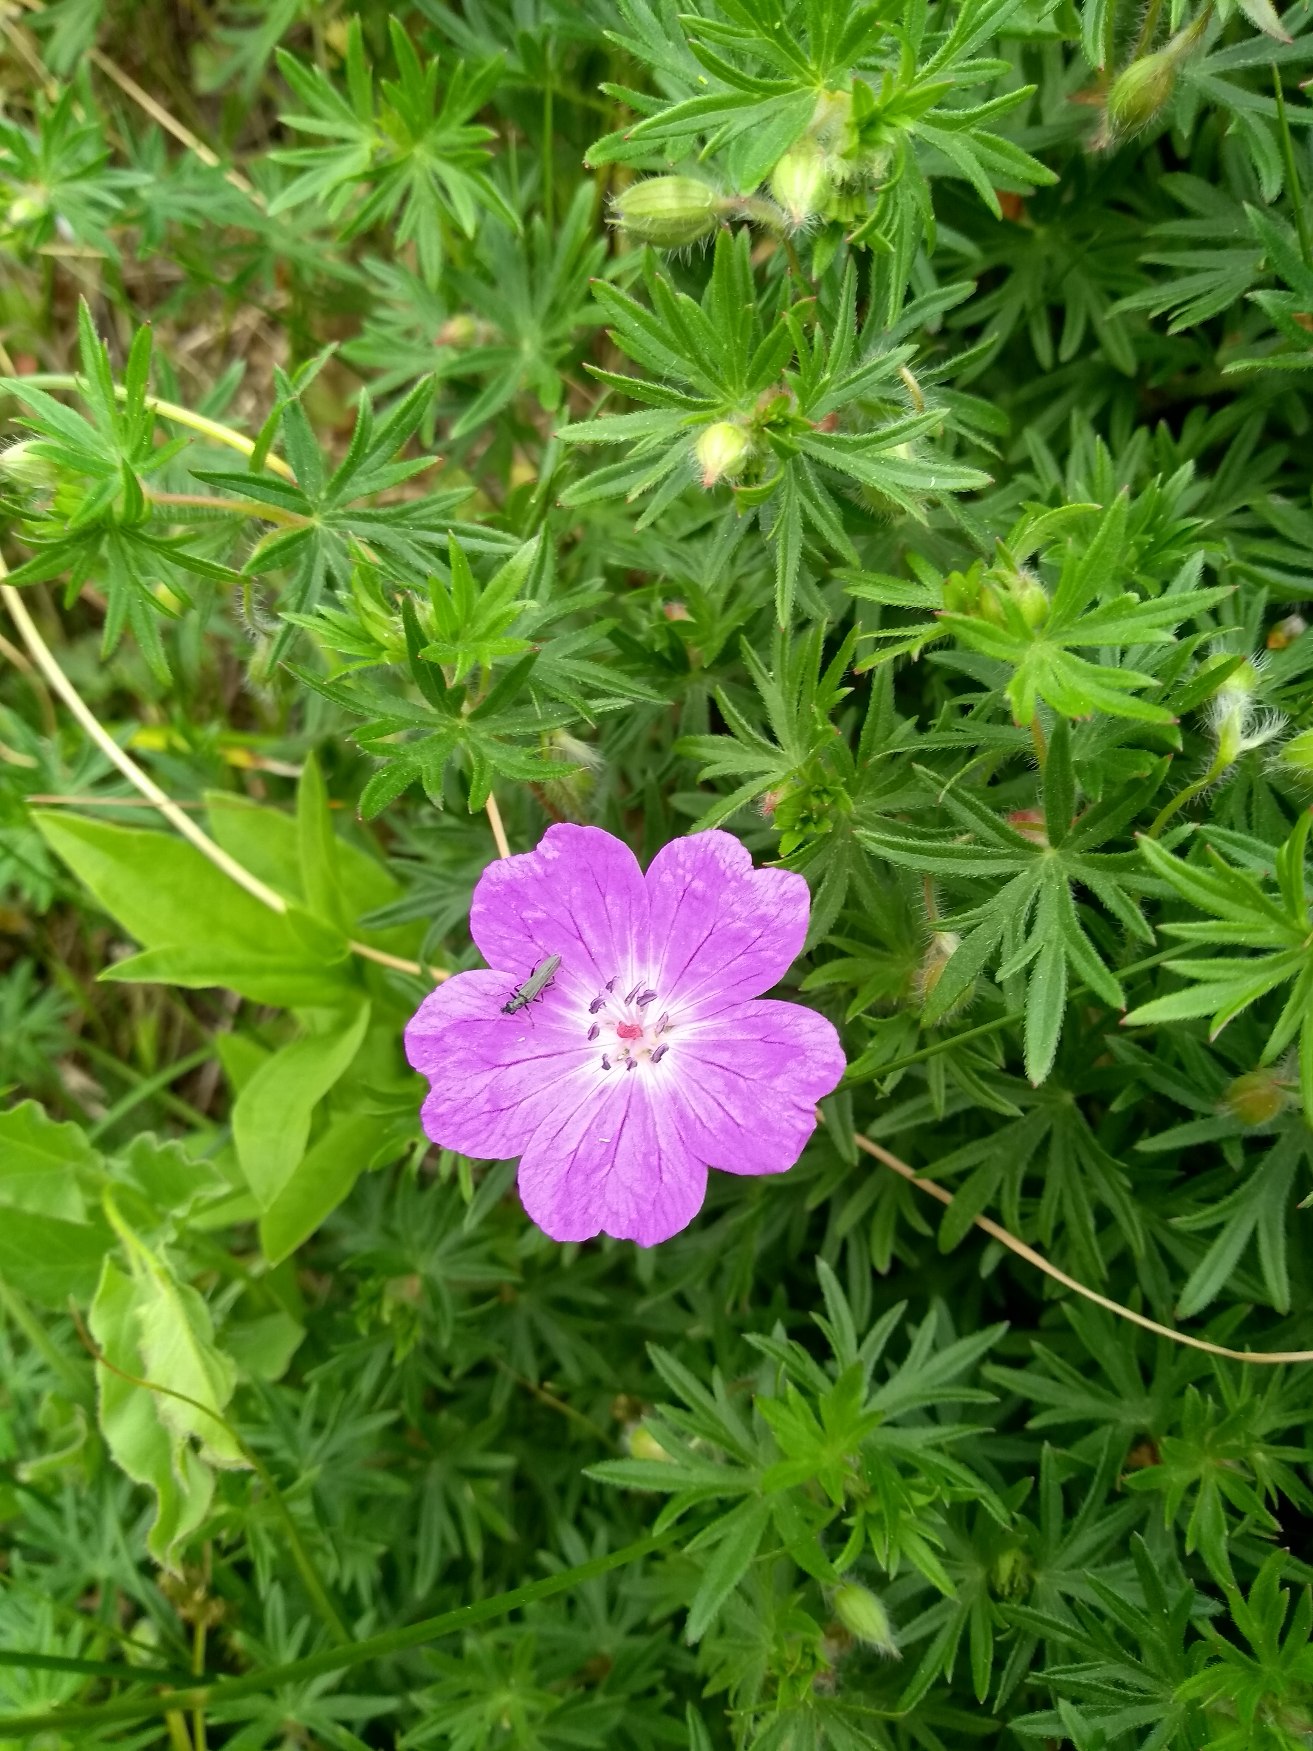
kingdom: Plantae
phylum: Tracheophyta
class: Magnoliopsida
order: Geraniales
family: Geraniaceae
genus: Geranium
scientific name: Geranium sanguineum
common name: Blodrød storkenæb
